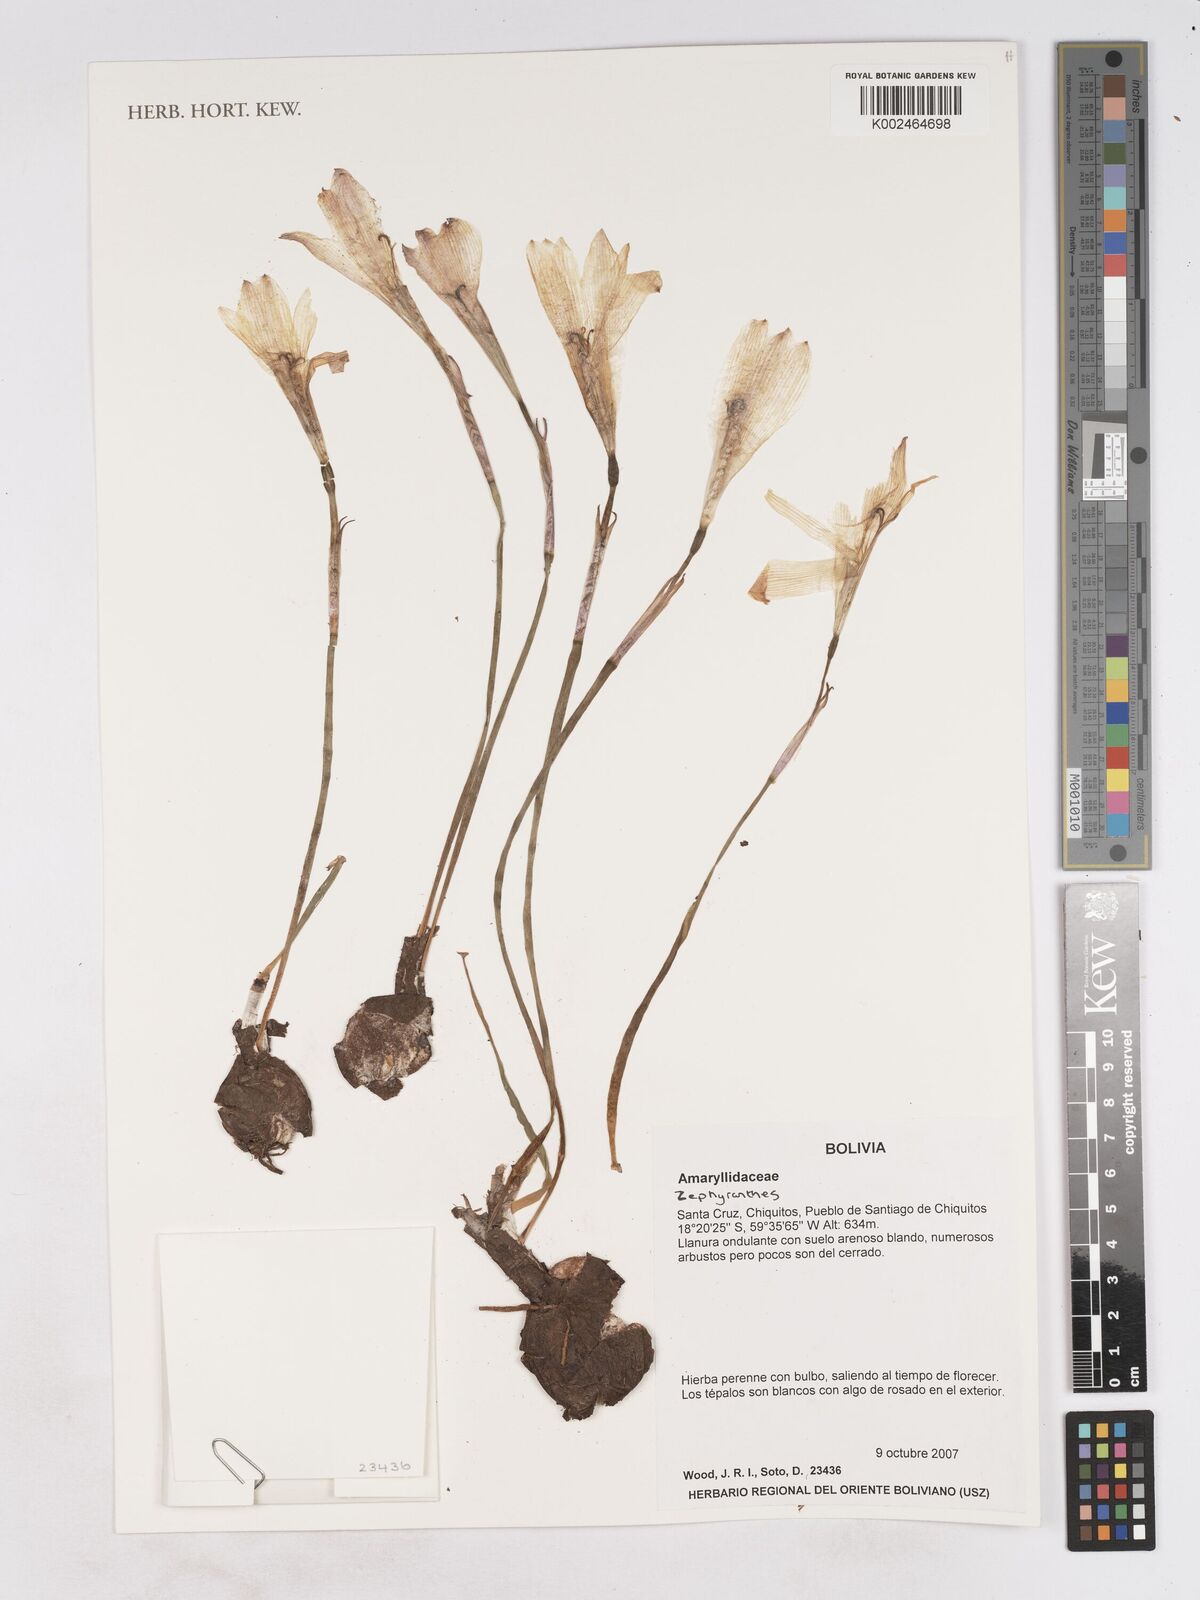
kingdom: Plantae
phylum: Tracheophyta
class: Liliopsida
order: Asparagales
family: Amaryllidaceae
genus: Zephyranthes
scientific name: Zephyranthes
